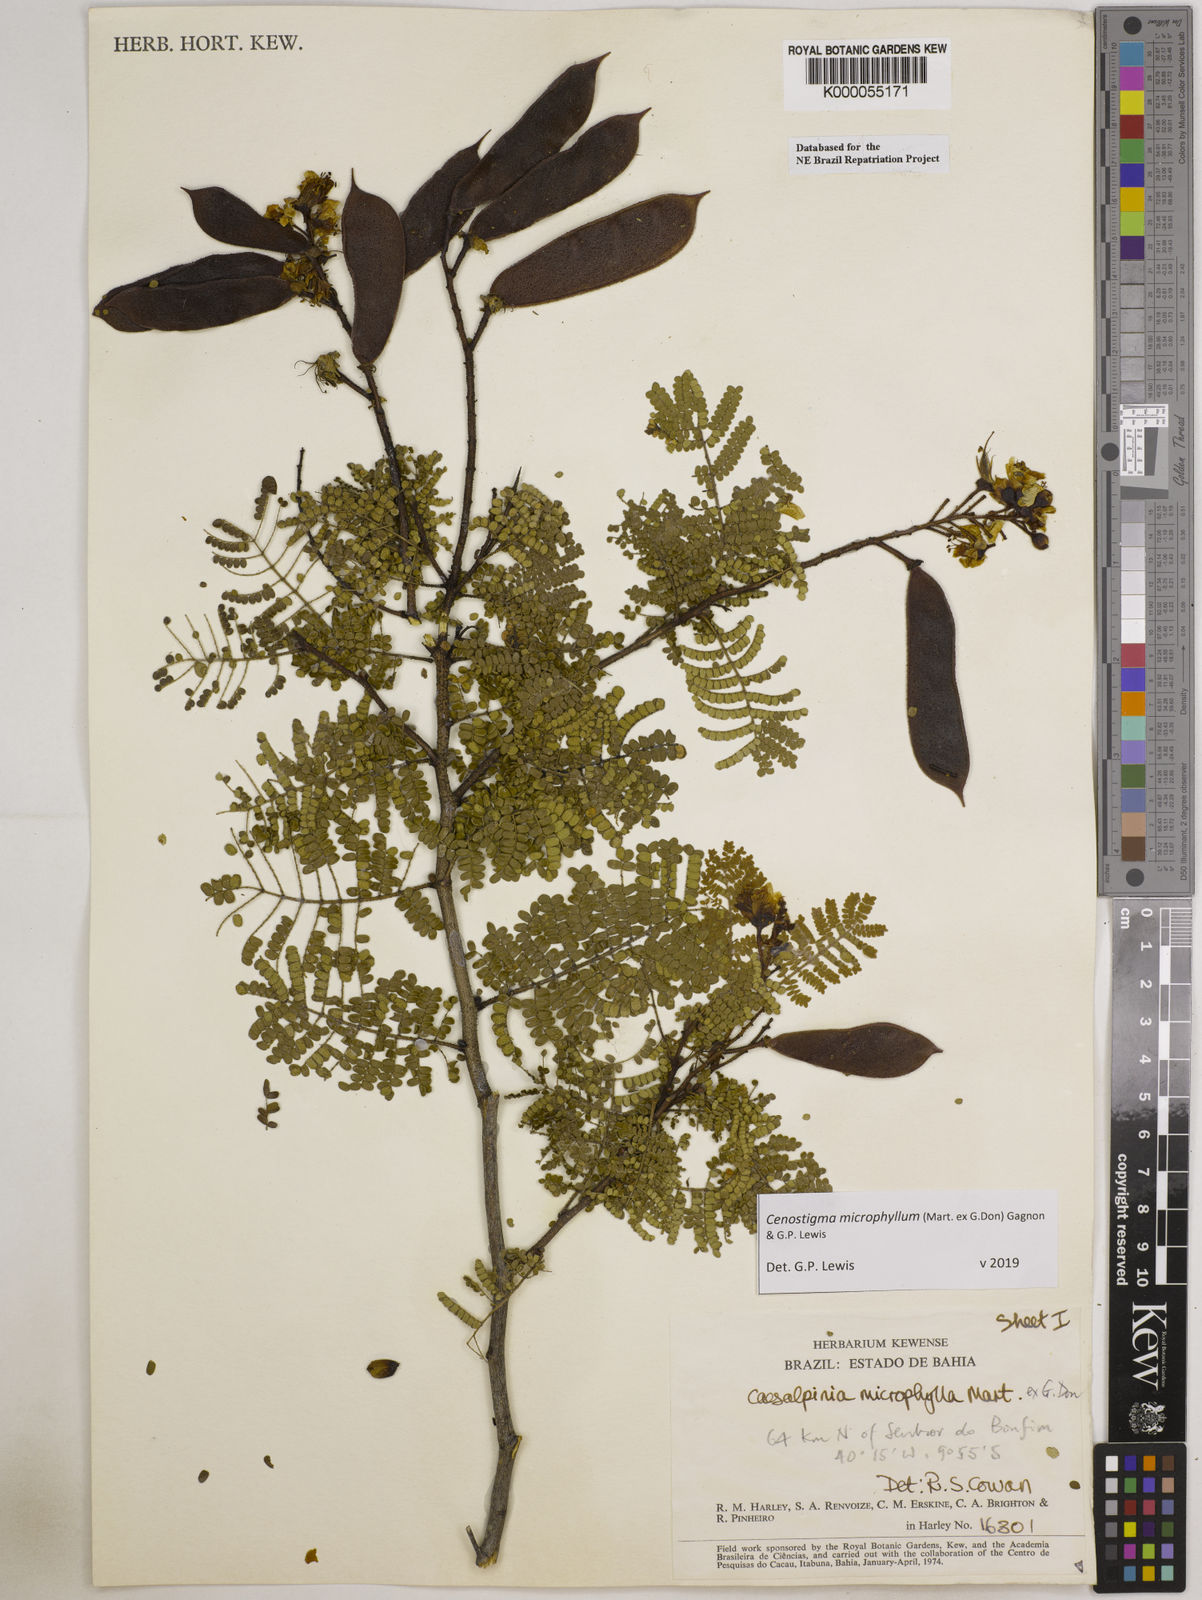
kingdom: Plantae
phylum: Tracheophyta
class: Magnoliopsida
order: Fabales
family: Fabaceae
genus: Cenostigma
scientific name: Cenostigma microphyllum
